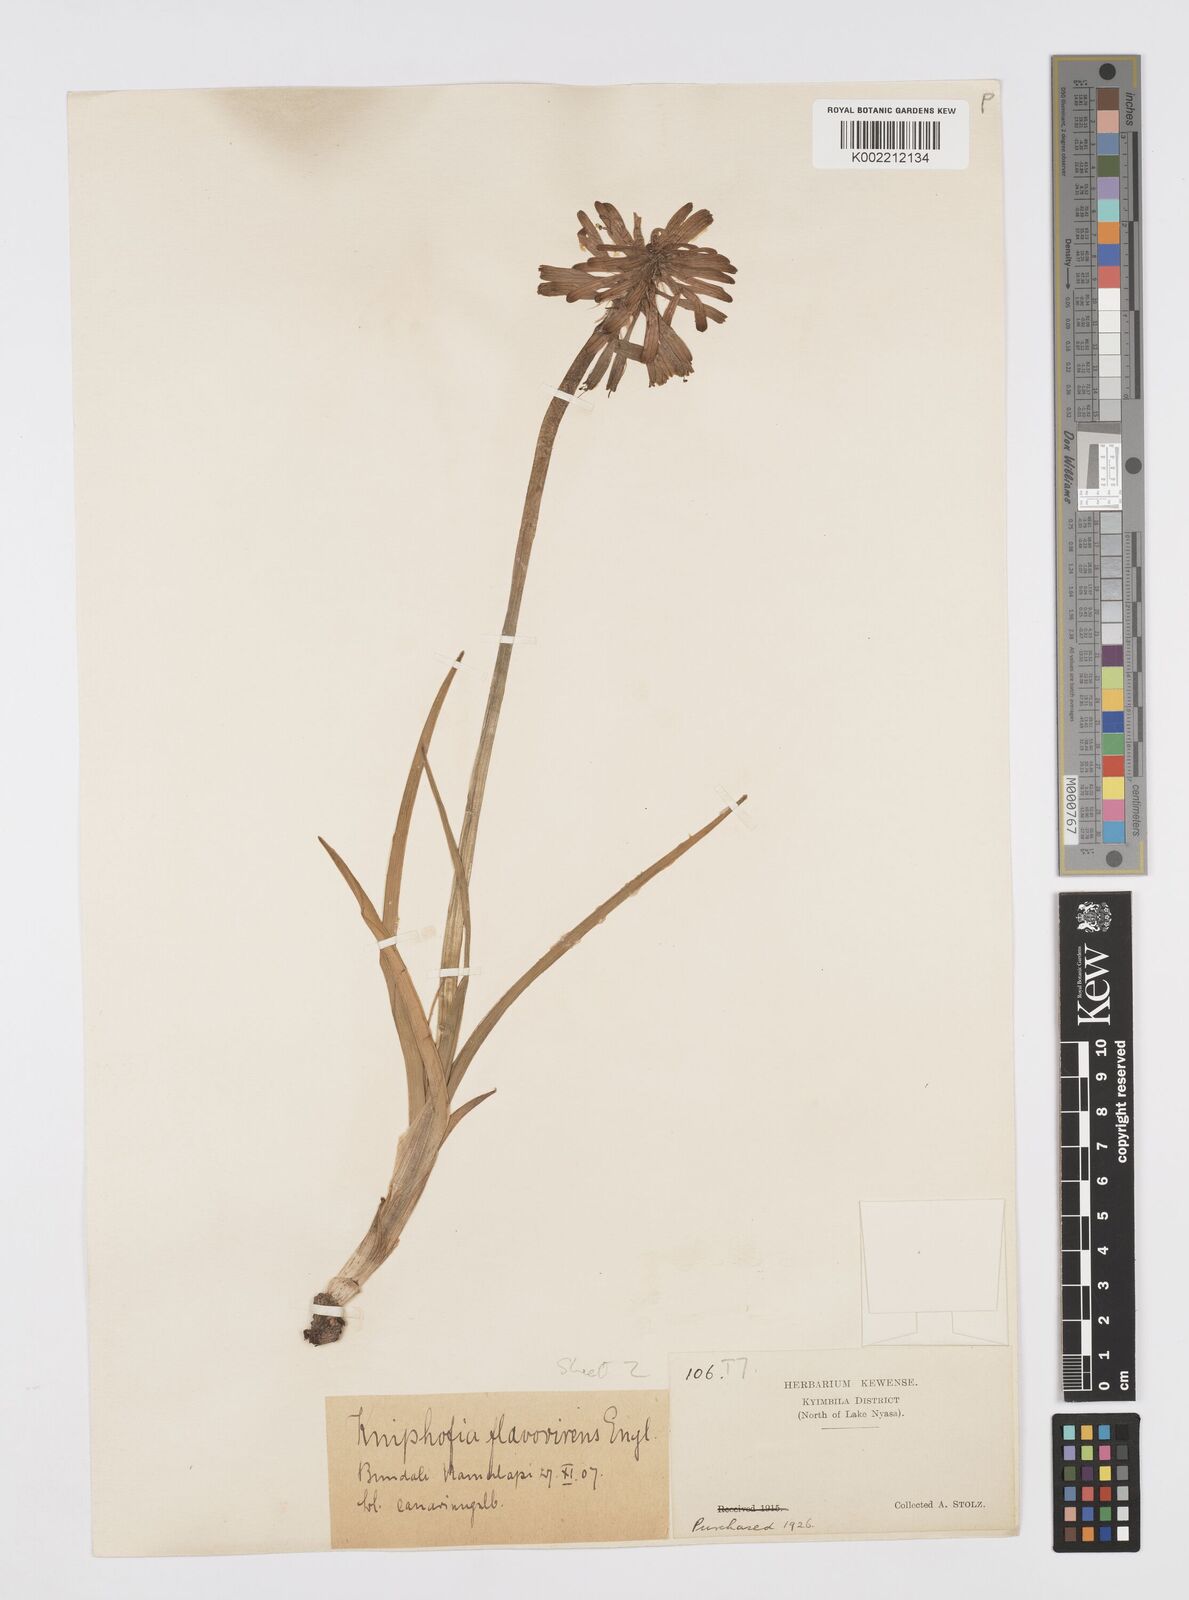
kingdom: Plantae
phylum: Tracheophyta
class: Liliopsida
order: Asparagales
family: Asphodelaceae
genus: Kniphofia
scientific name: Kniphofia grantii
